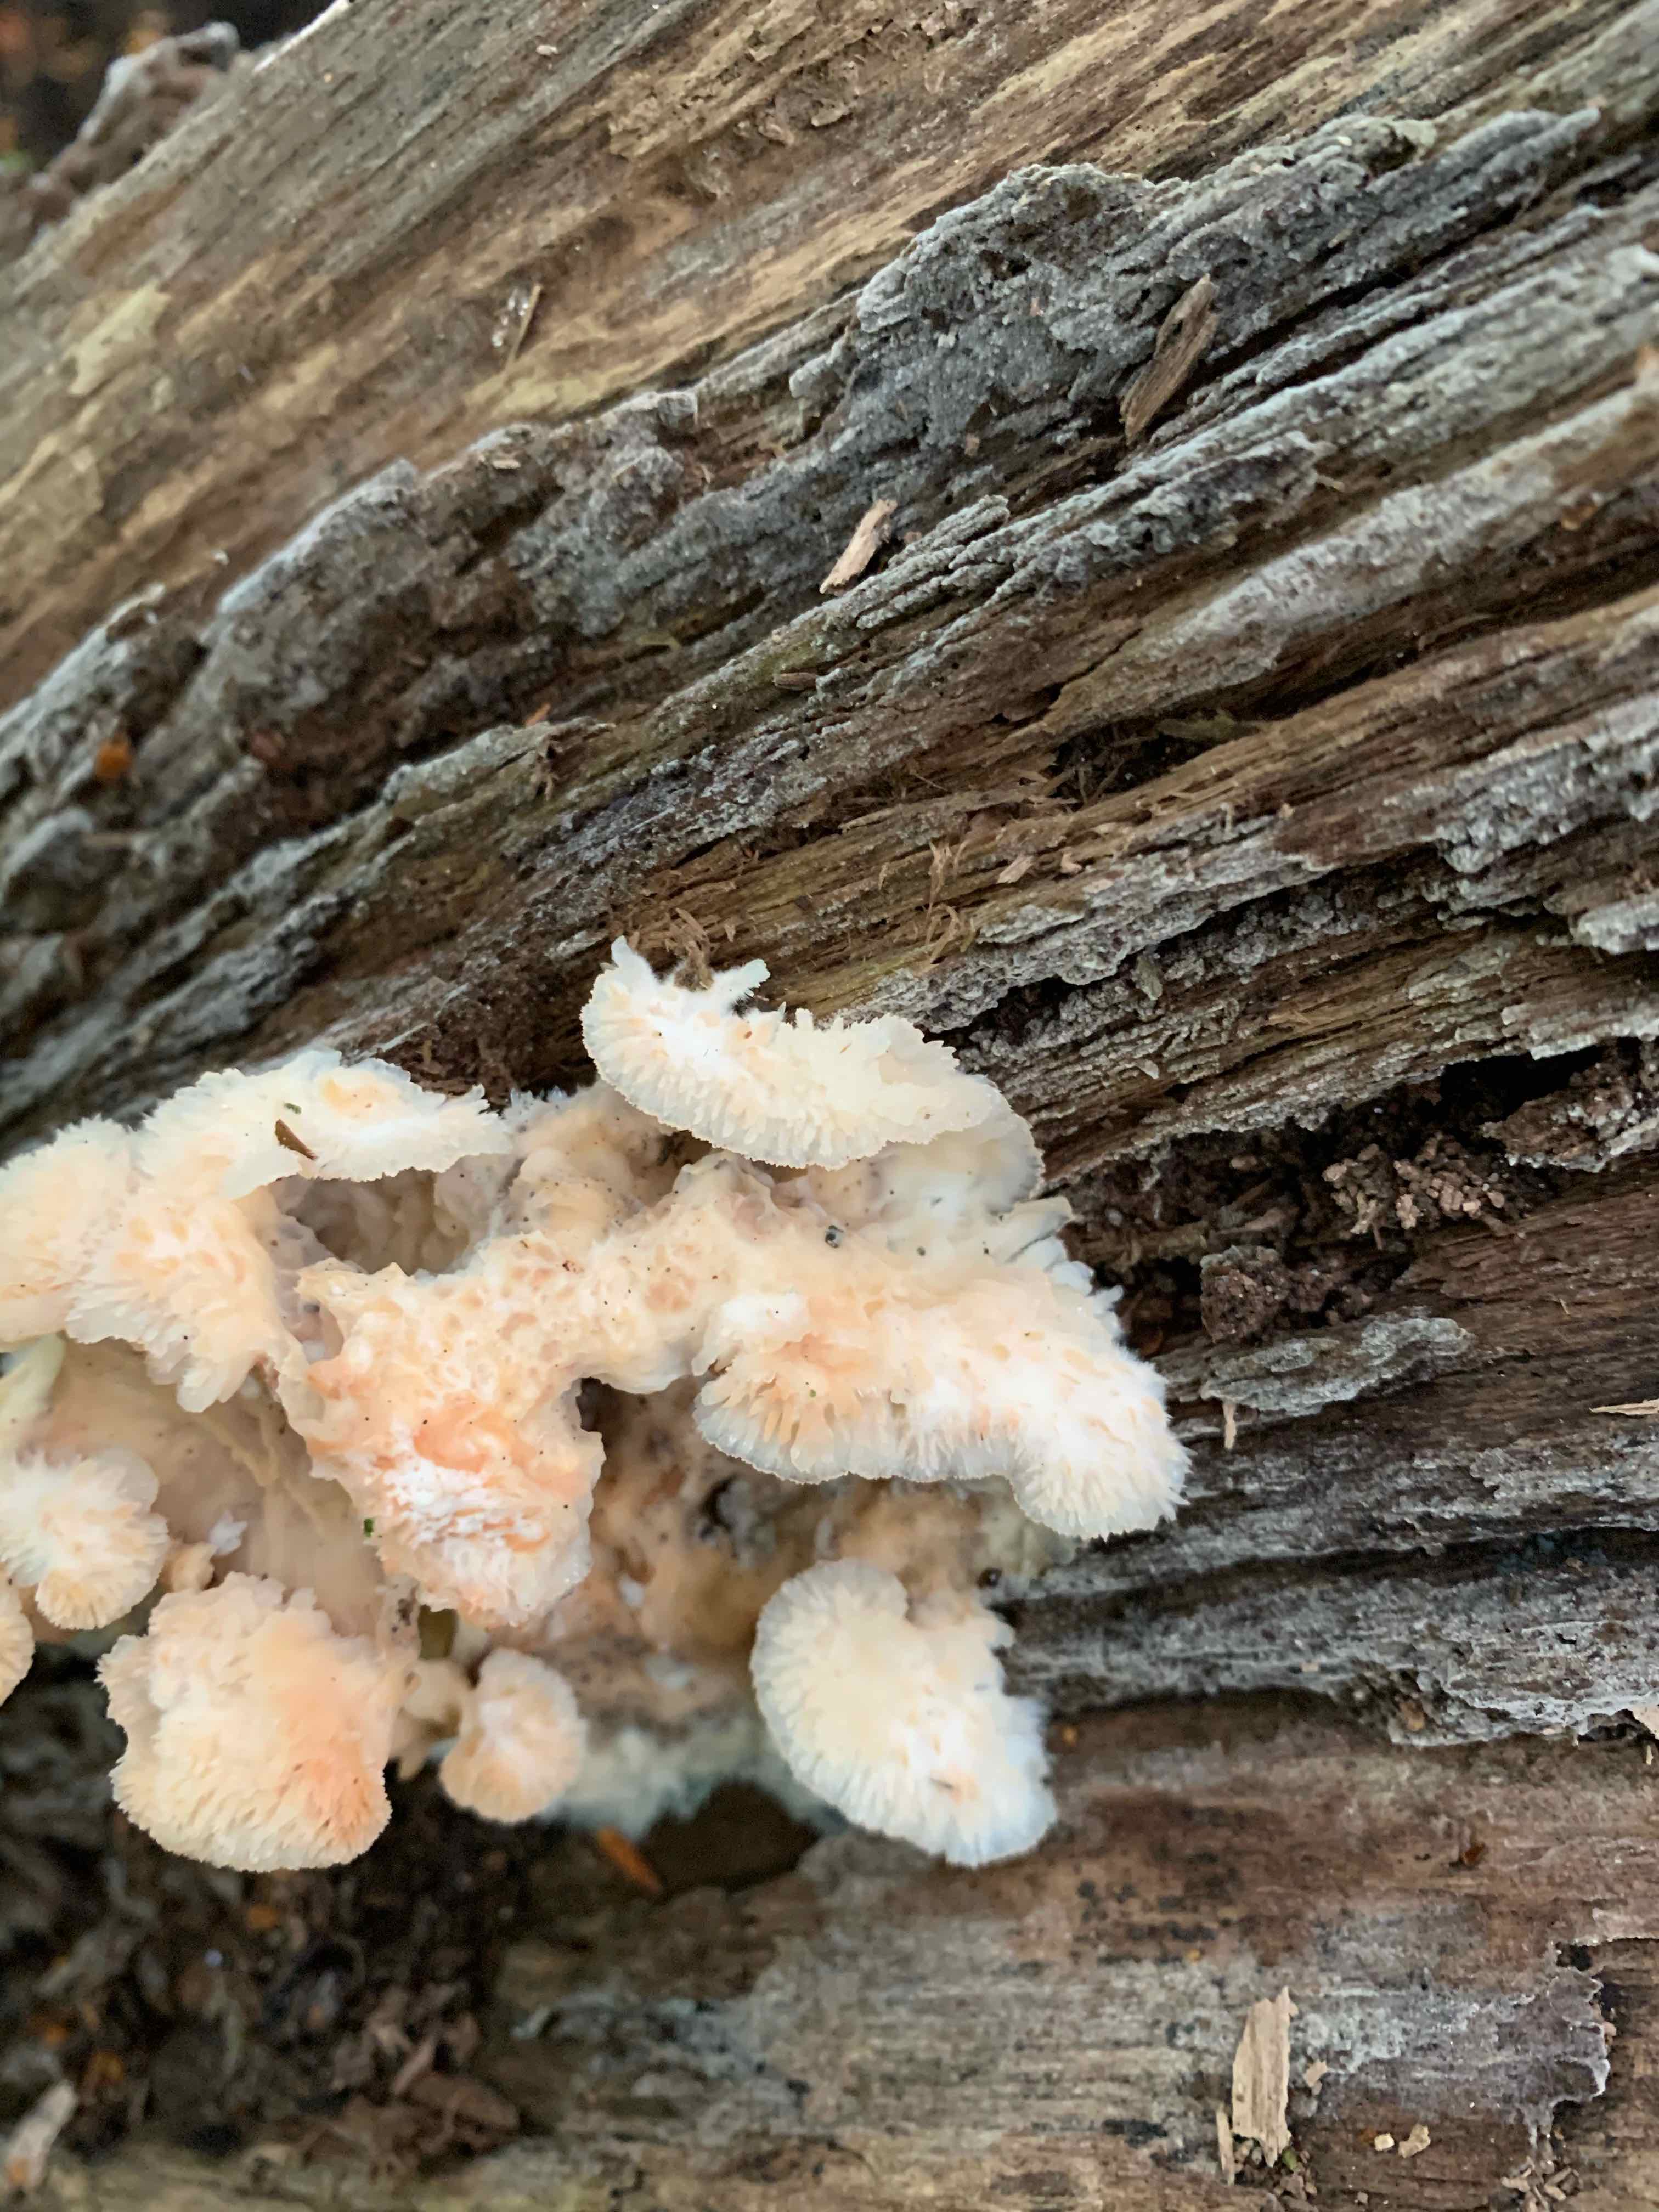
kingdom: Fungi
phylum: Basidiomycota
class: Agaricomycetes
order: Polyporales
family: Meruliaceae
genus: Phlebia
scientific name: Phlebia tremellosa
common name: bævrende åresvamp
